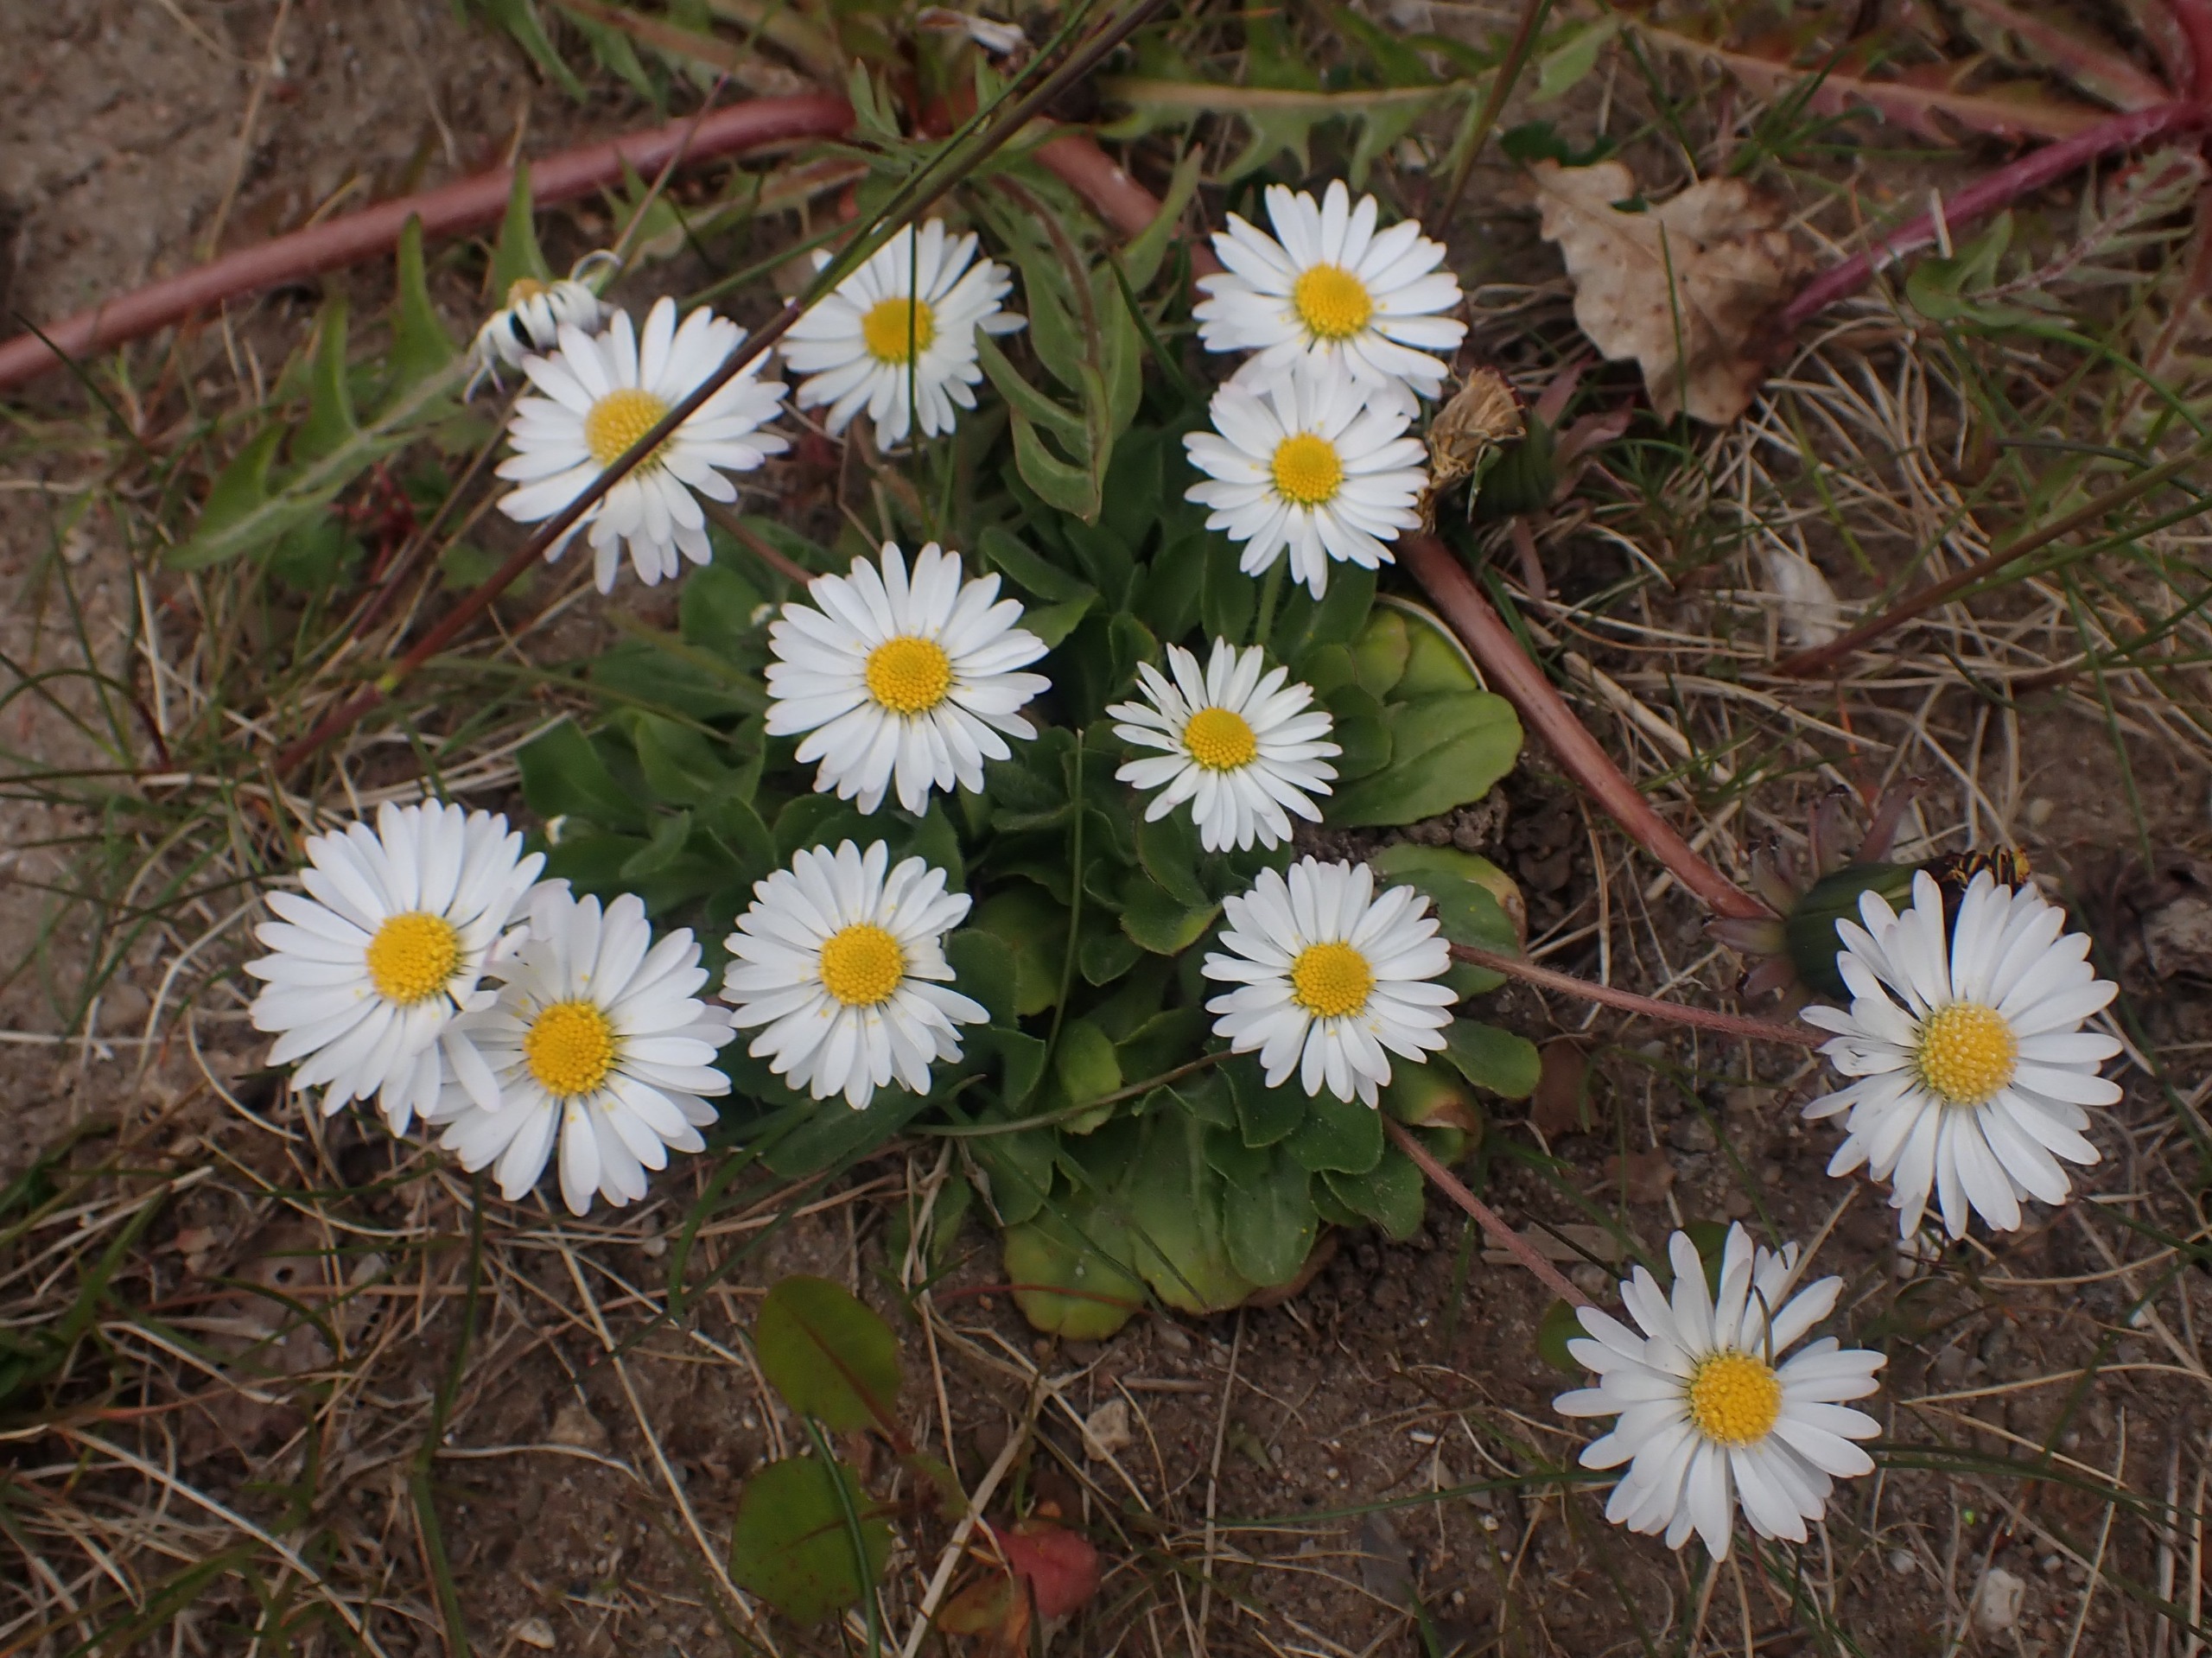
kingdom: Plantae
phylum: Tracheophyta
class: Magnoliopsida
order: Asterales
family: Asteraceae
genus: Bellis
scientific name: Bellis perennis
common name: Tusindfryd
